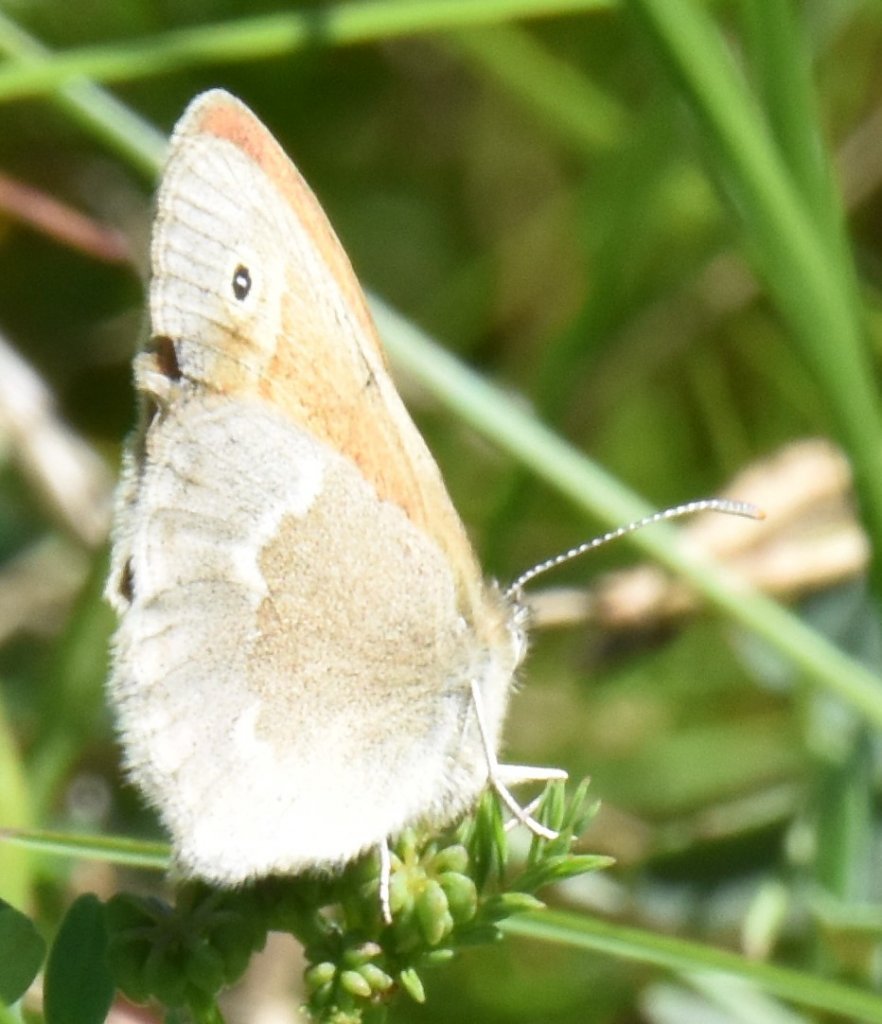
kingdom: Animalia
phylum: Arthropoda
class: Insecta
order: Lepidoptera
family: Nymphalidae
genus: Coenonympha
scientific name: Coenonympha tullia
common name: Large Heath
